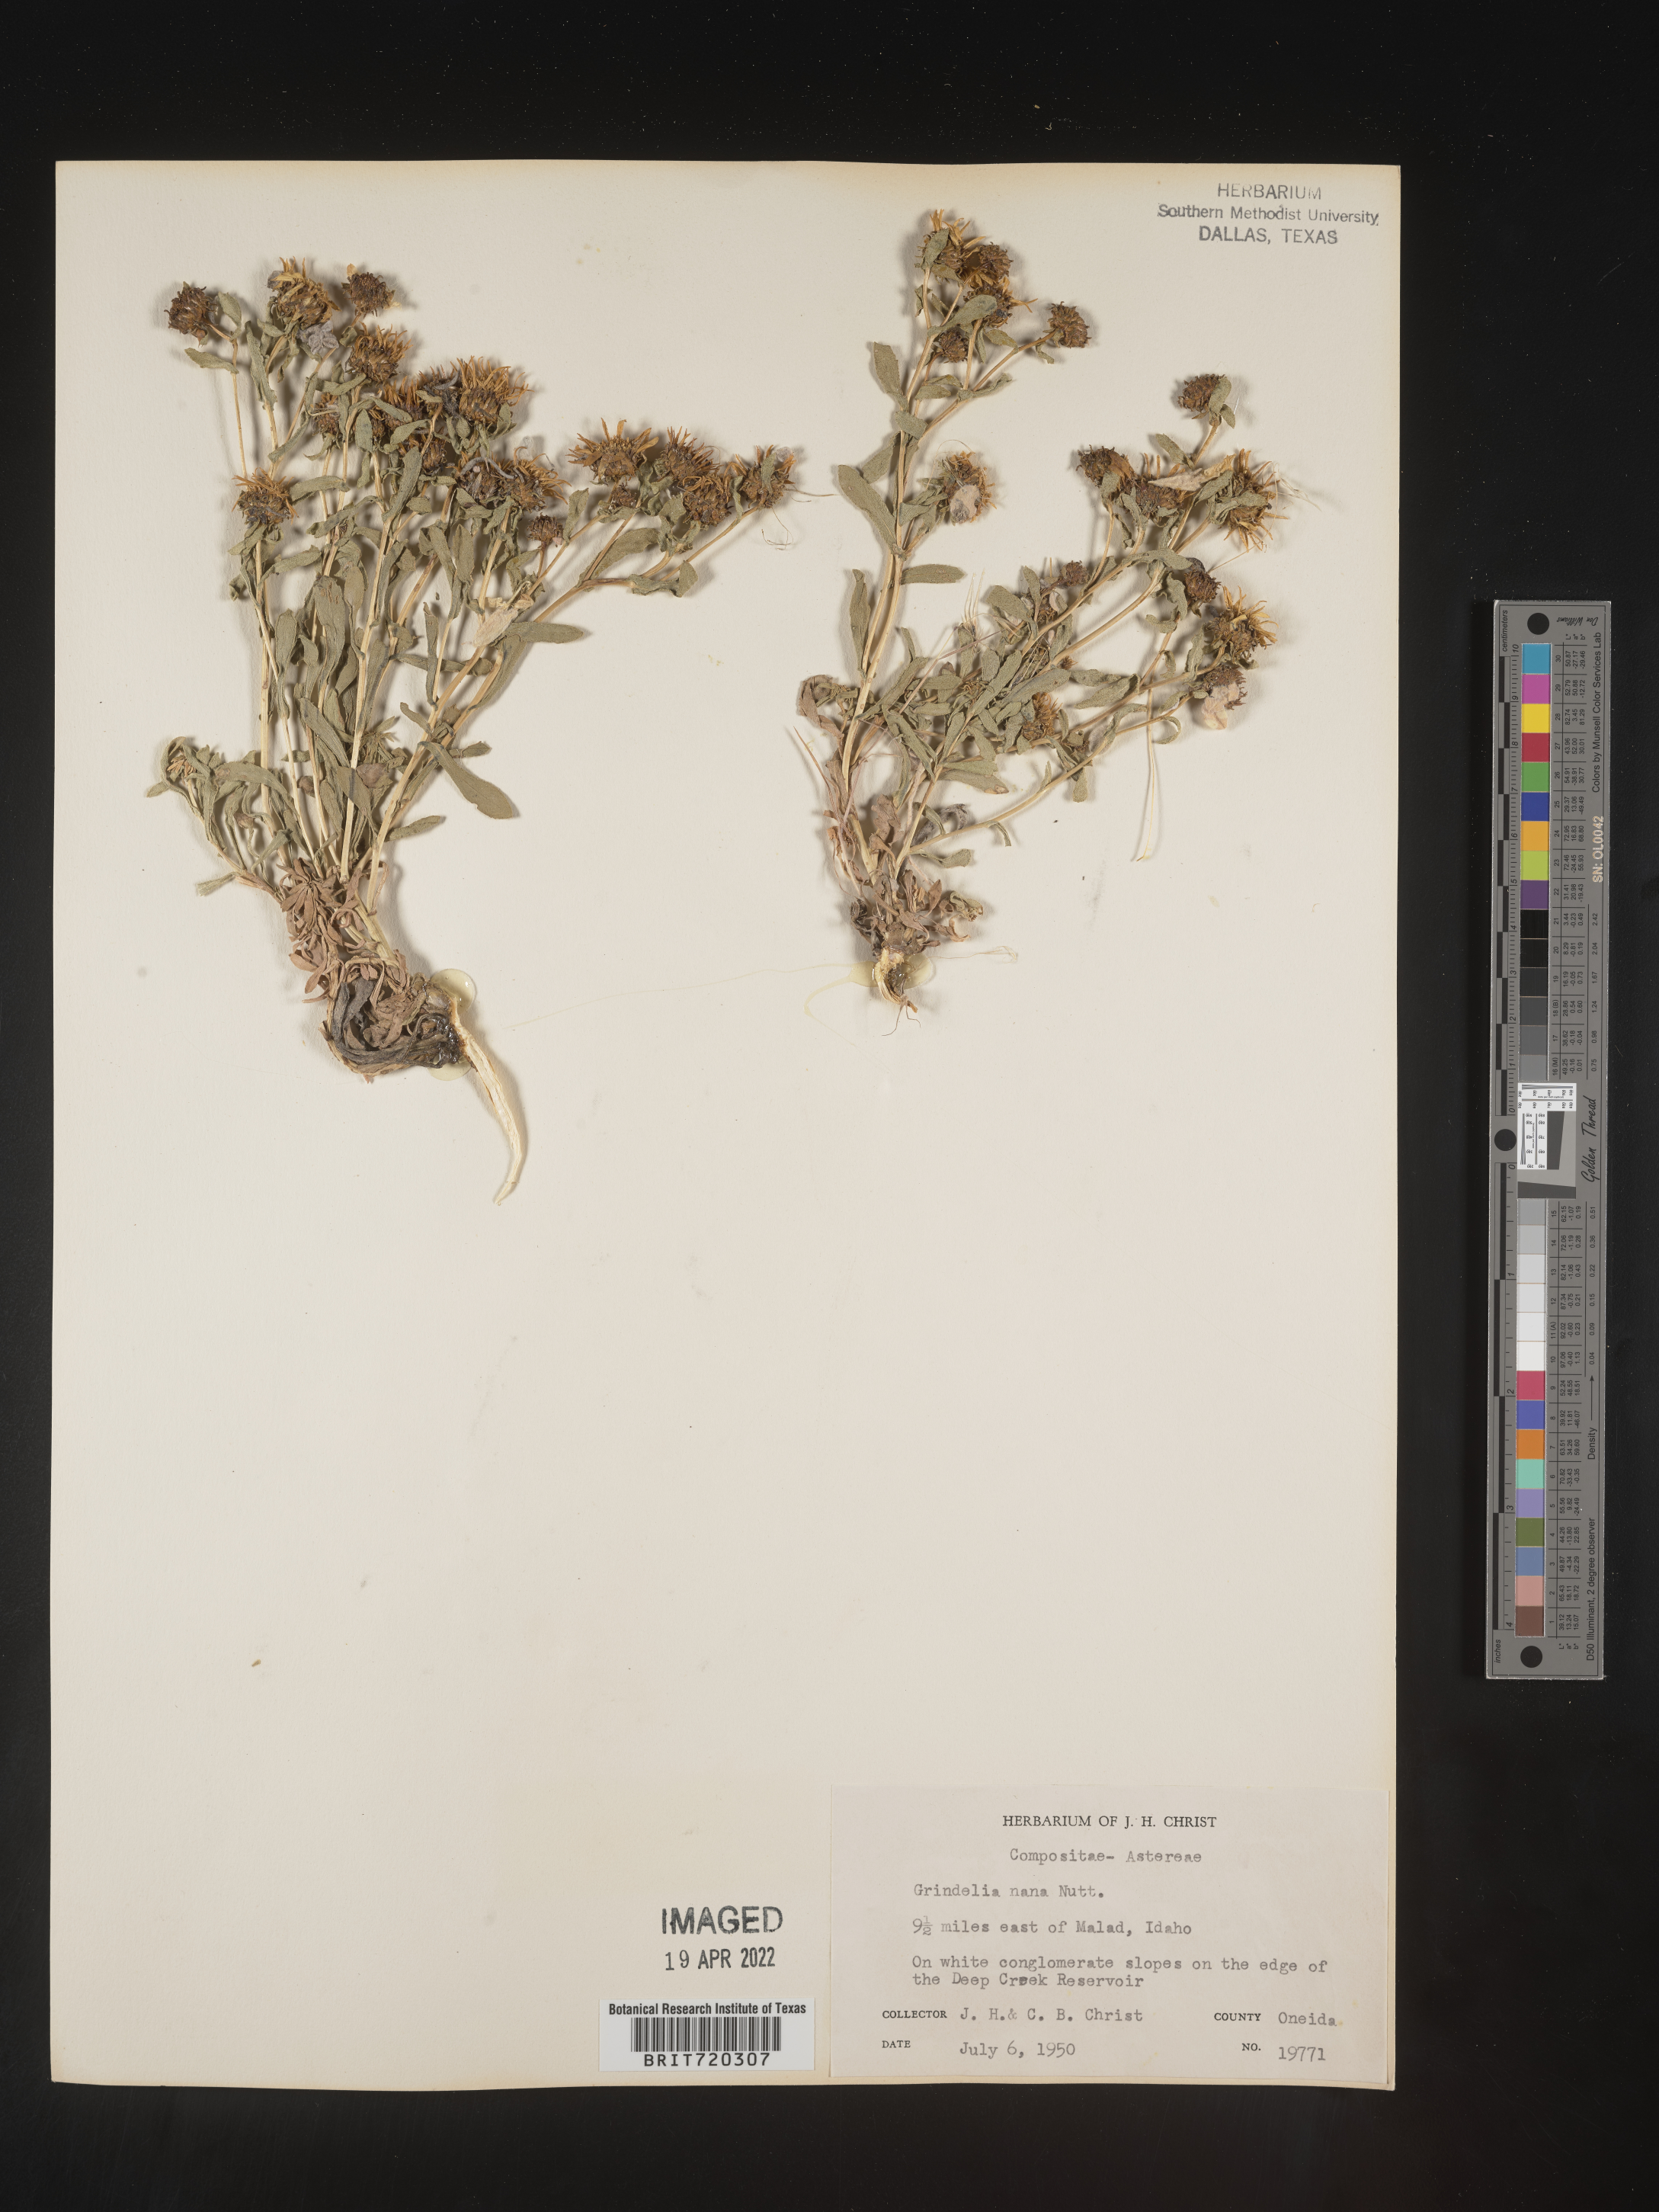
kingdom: Plantae
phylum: Tracheophyta
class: Magnoliopsida
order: Asterales
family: Asteraceae
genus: Grindelia
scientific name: Grindelia hirsutula
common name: Hairy gumweed
